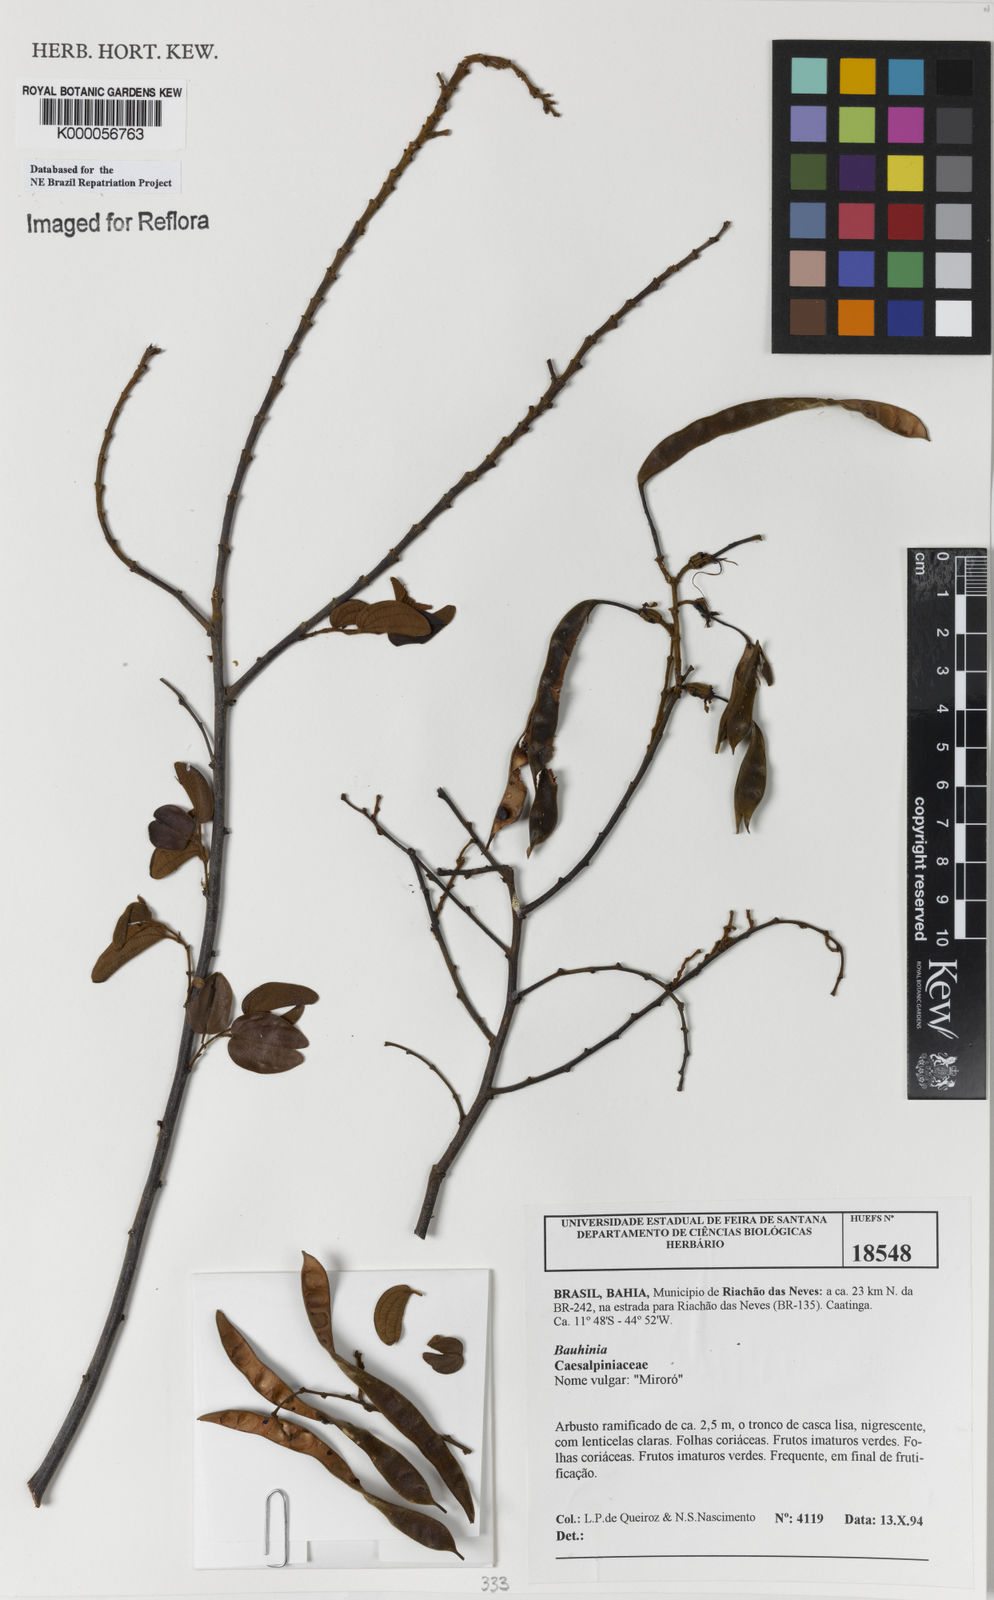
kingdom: Plantae
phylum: Tracheophyta
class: Magnoliopsida
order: Fabales
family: Fabaceae
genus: Bauhinia
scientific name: Bauhinia
